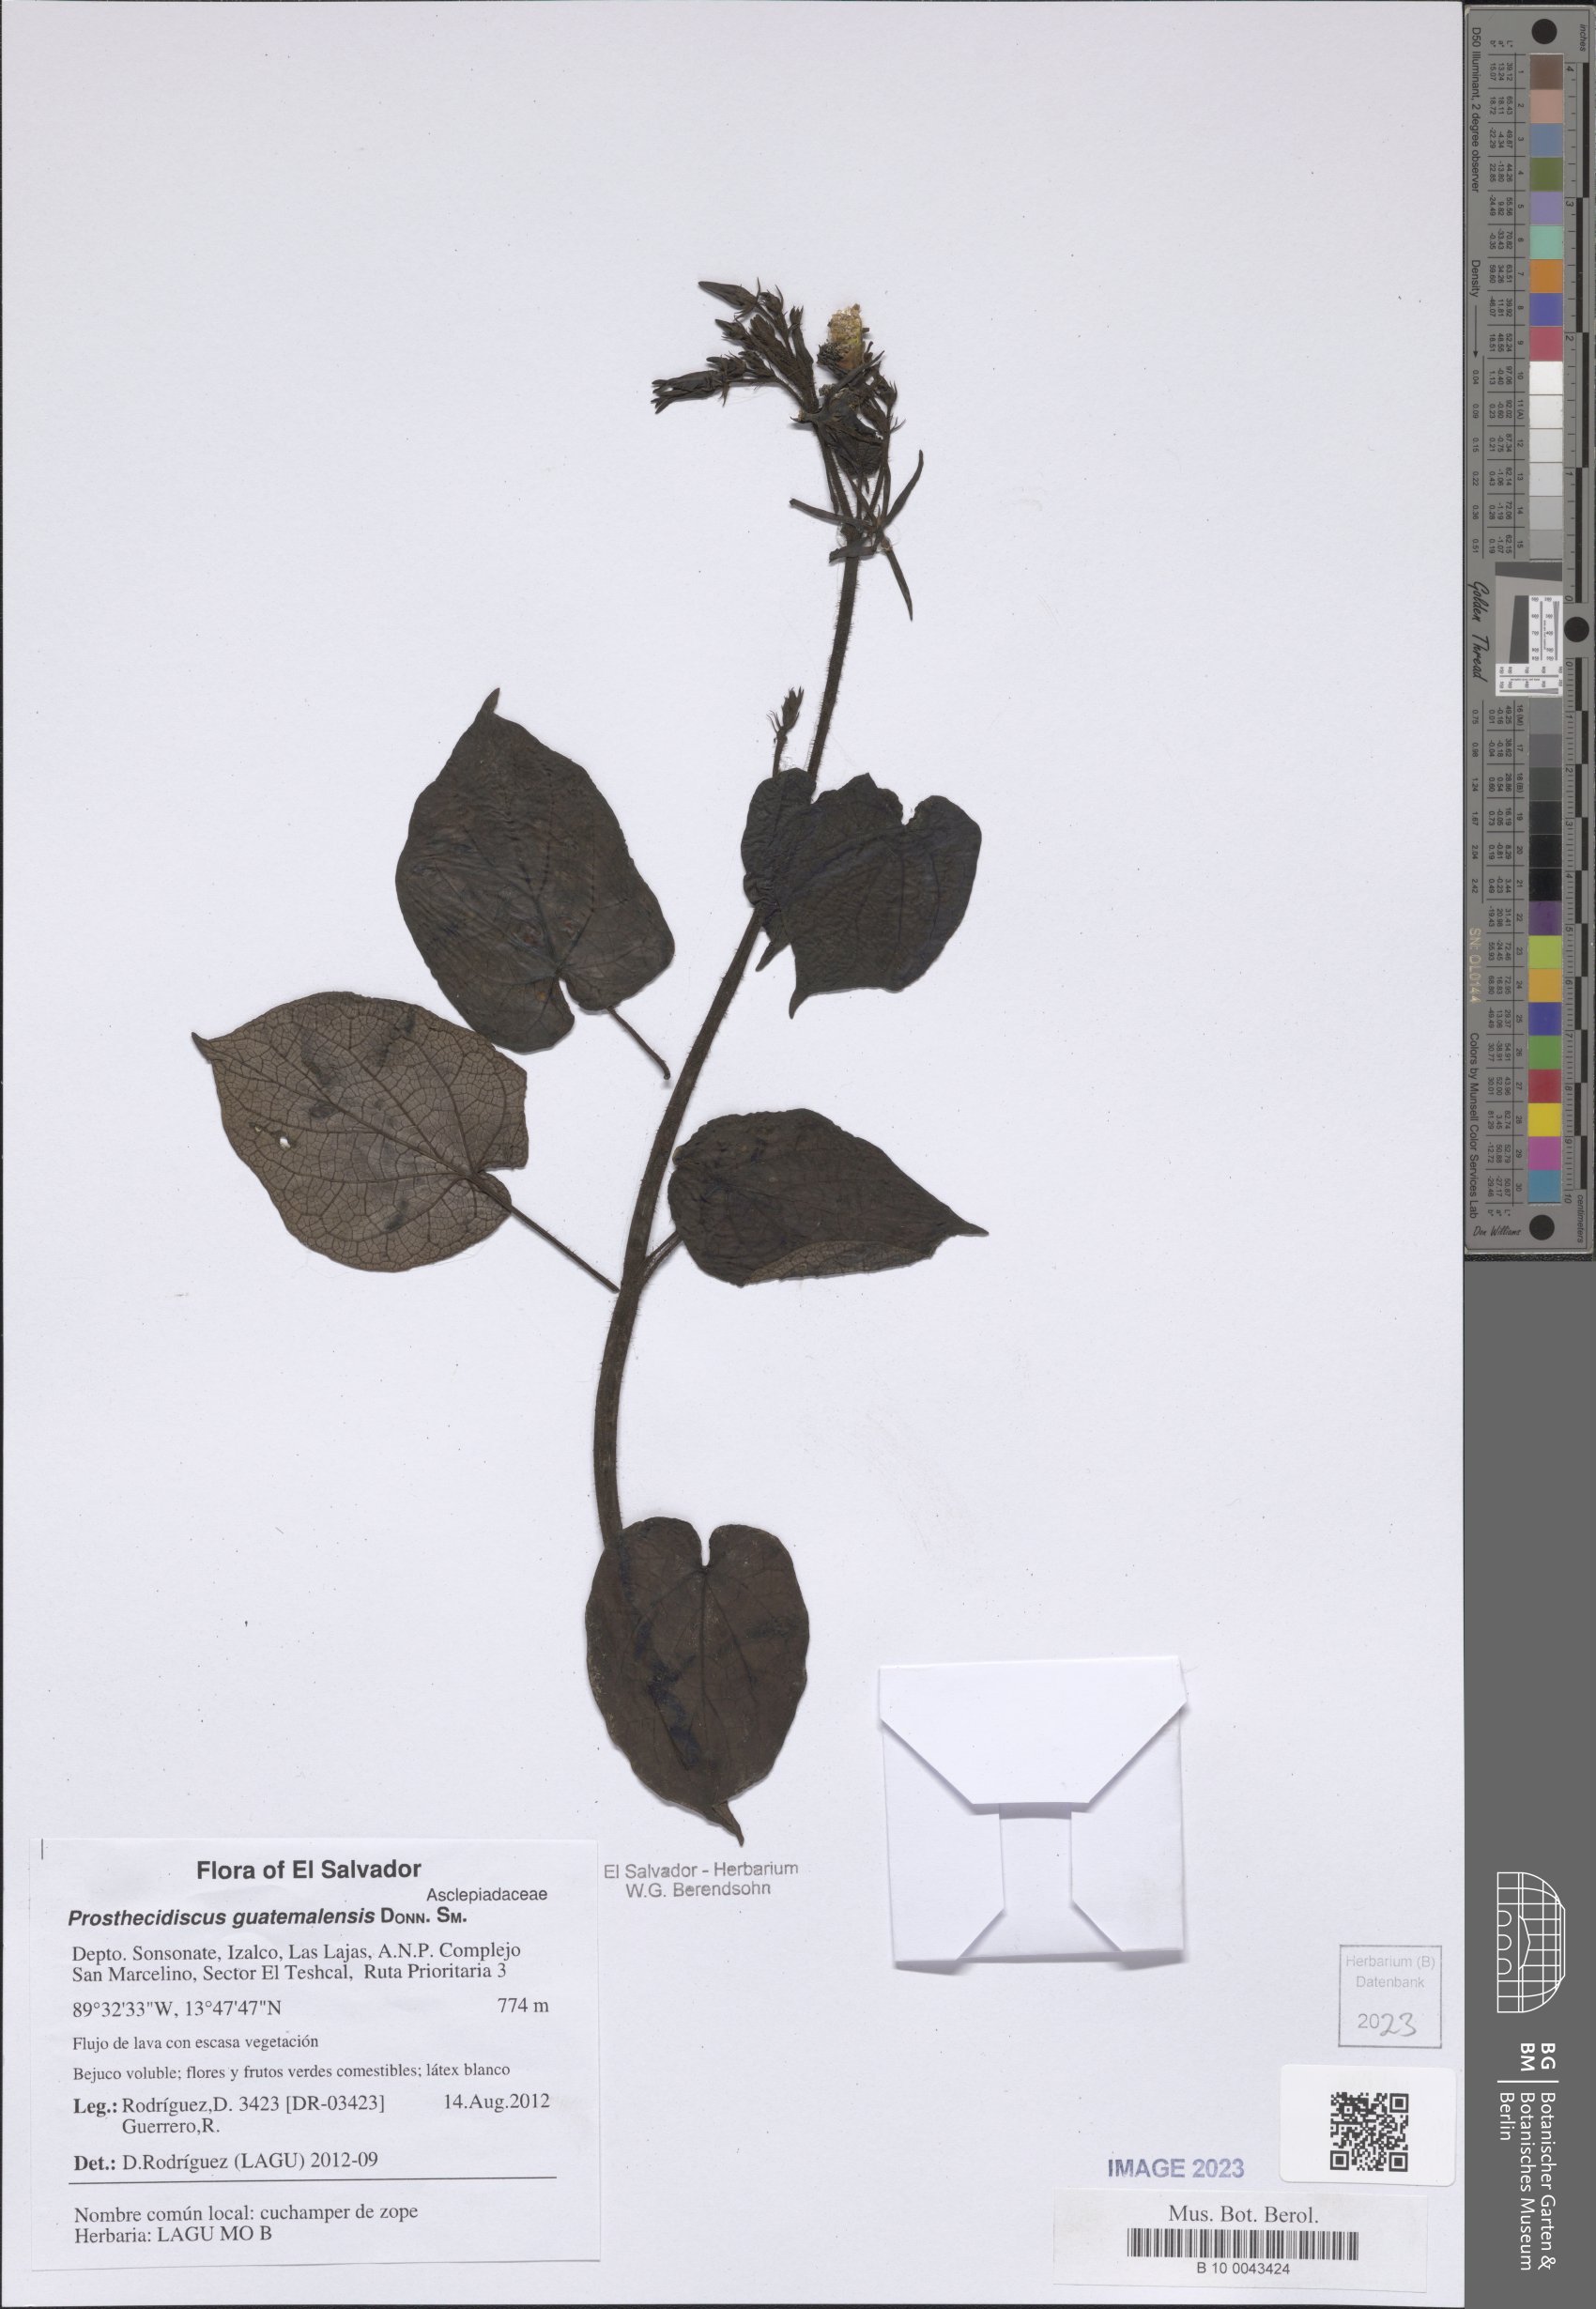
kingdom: Plantae
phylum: Tracheophyta
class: Magnoliopsida
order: Gentianales
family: Apocynaceae
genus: Matelea
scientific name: Matelea prosthecidiscus
